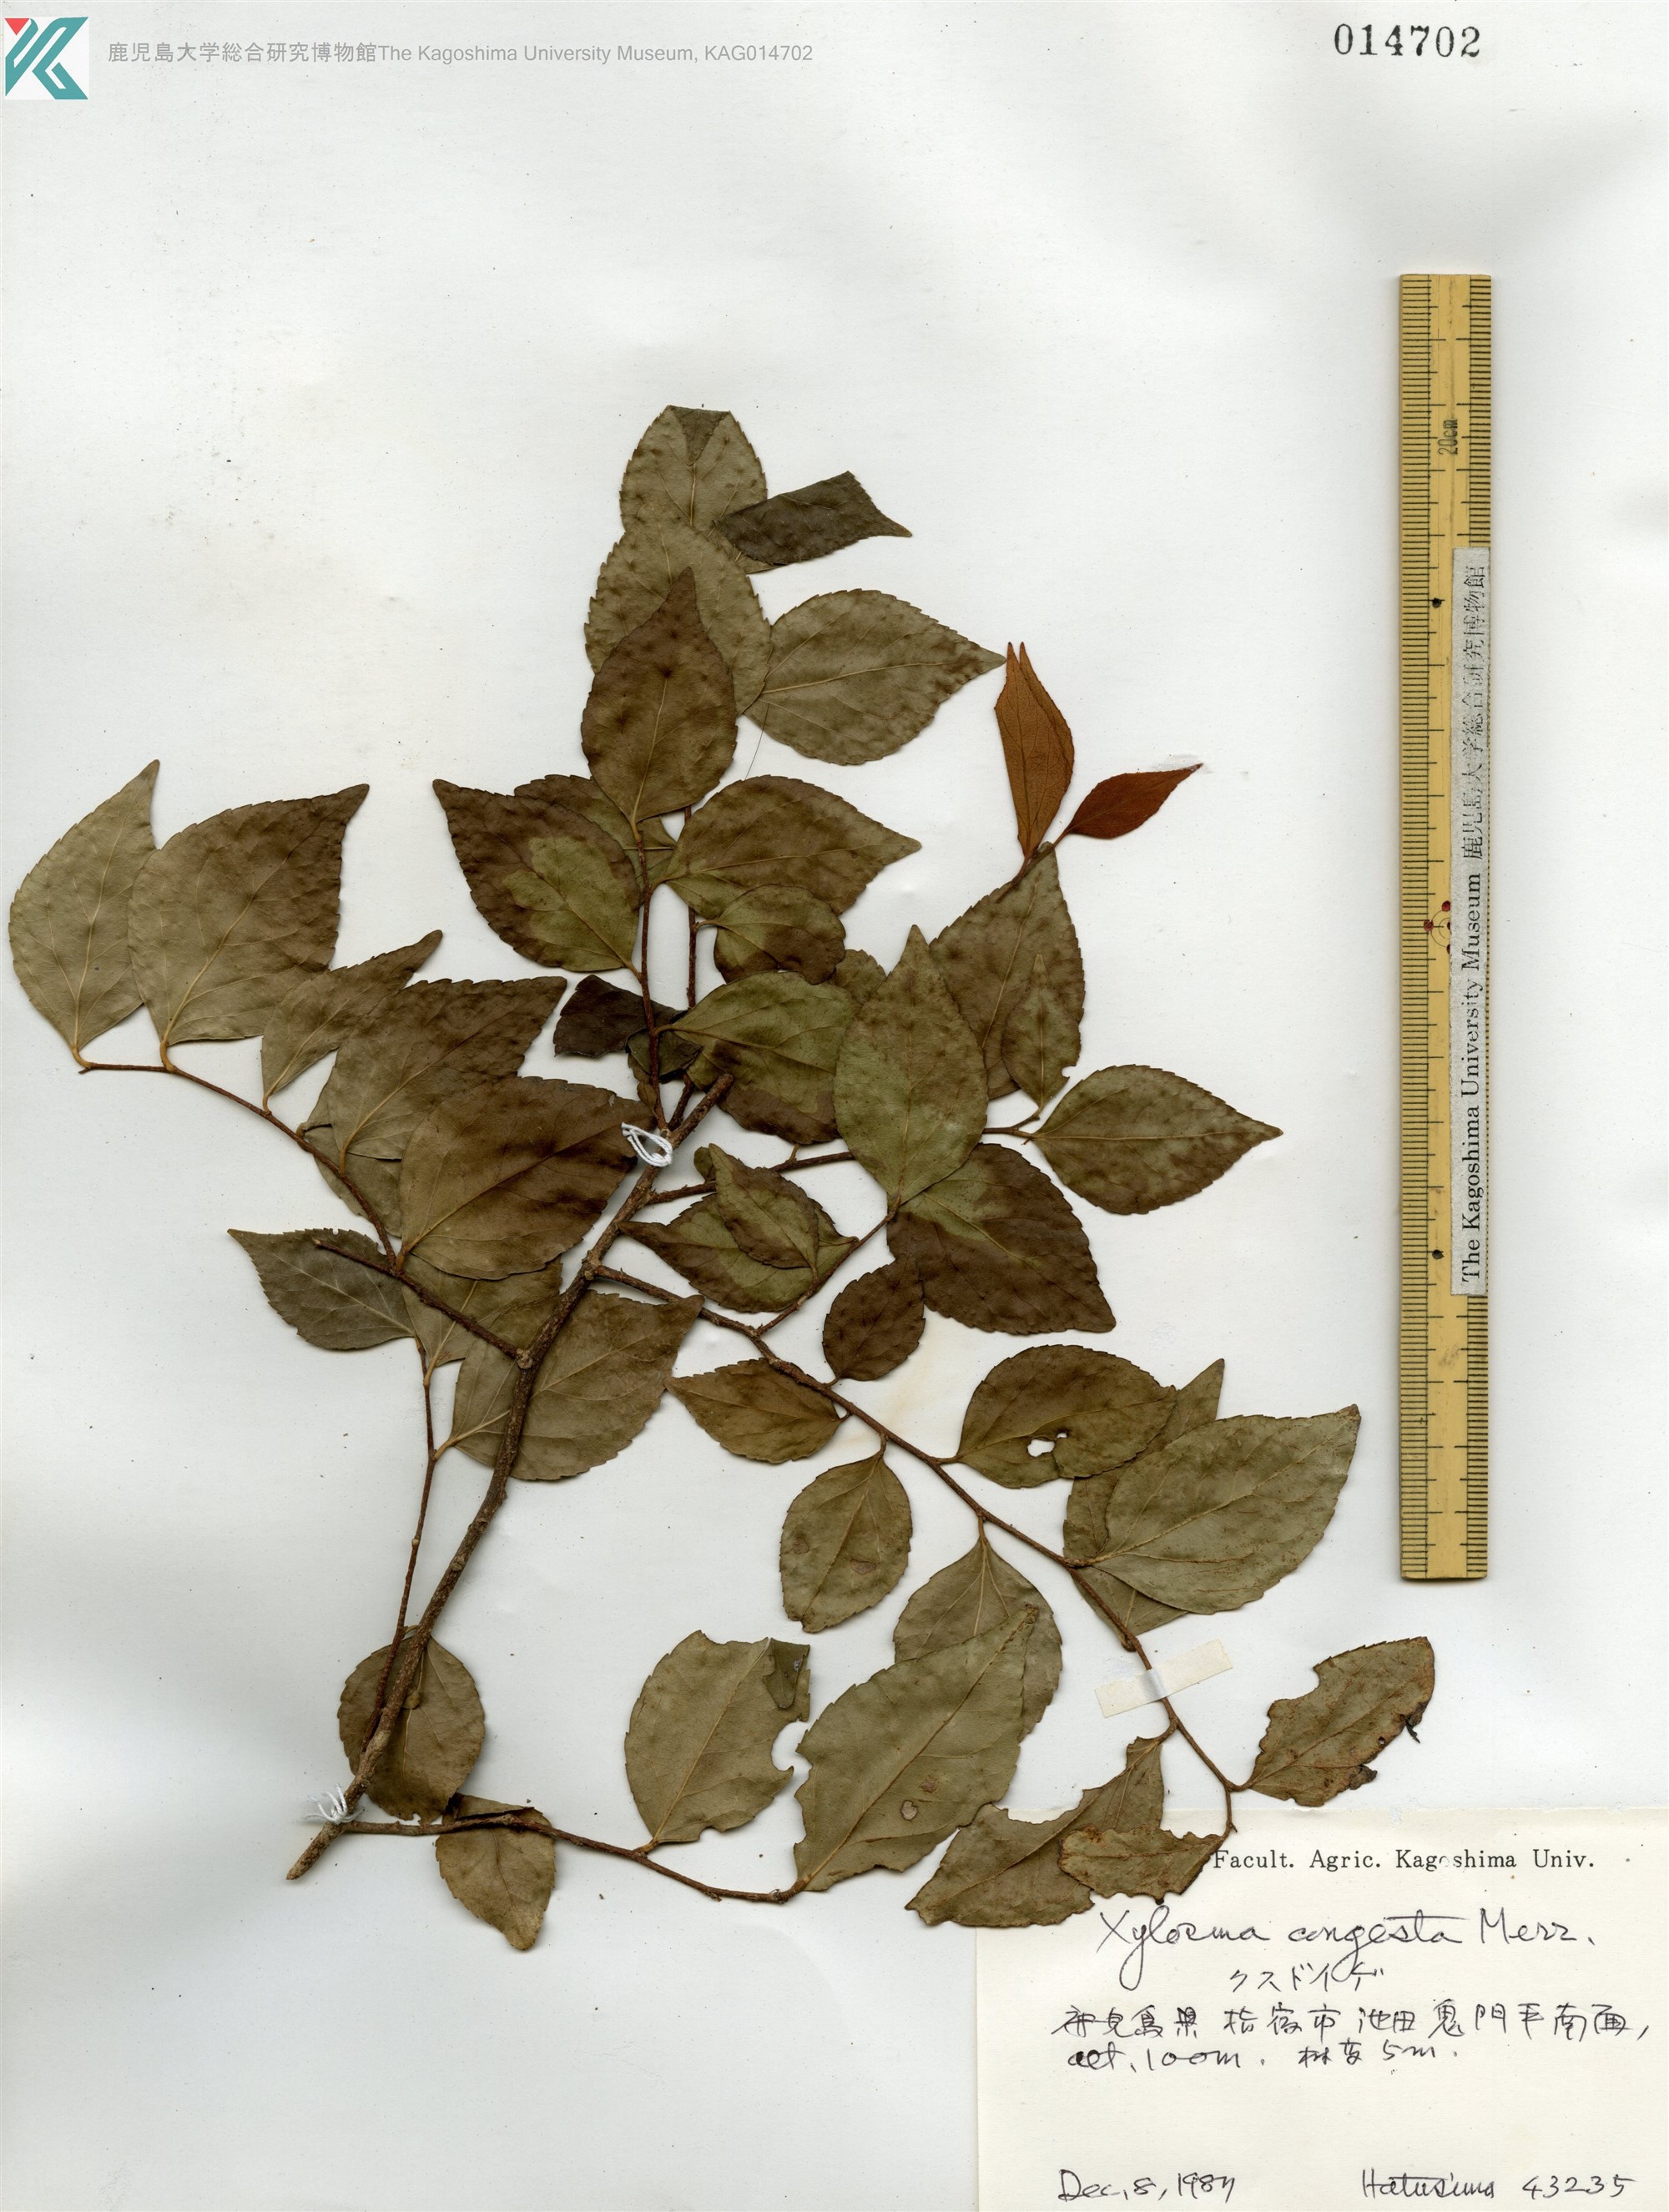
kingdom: Plantae
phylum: Tracheophyta
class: Magnoliopsida
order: Malpighiales
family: Salicaceae
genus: Xylosma
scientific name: Xylosma racemosum
